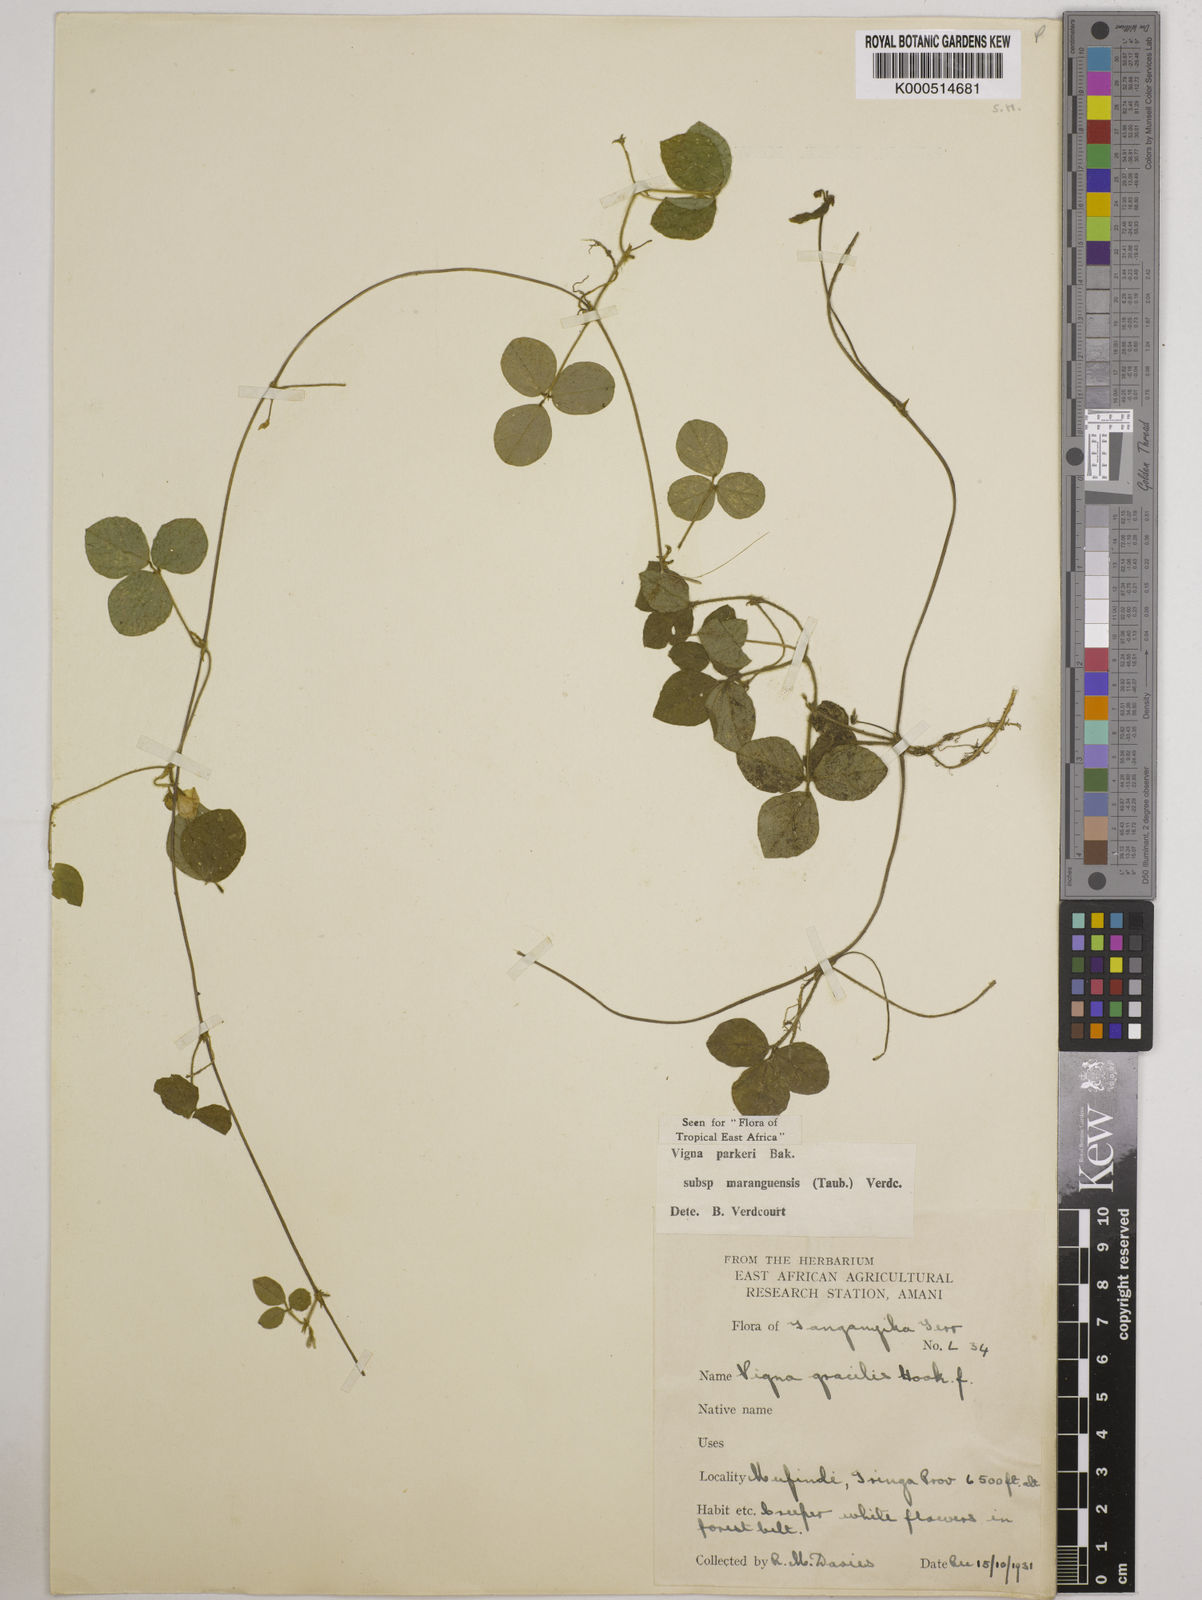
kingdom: Plantae
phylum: Tracheophyta
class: Magnoliopsida
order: Fabales
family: Fabaceae
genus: Vigna
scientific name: Vigna
